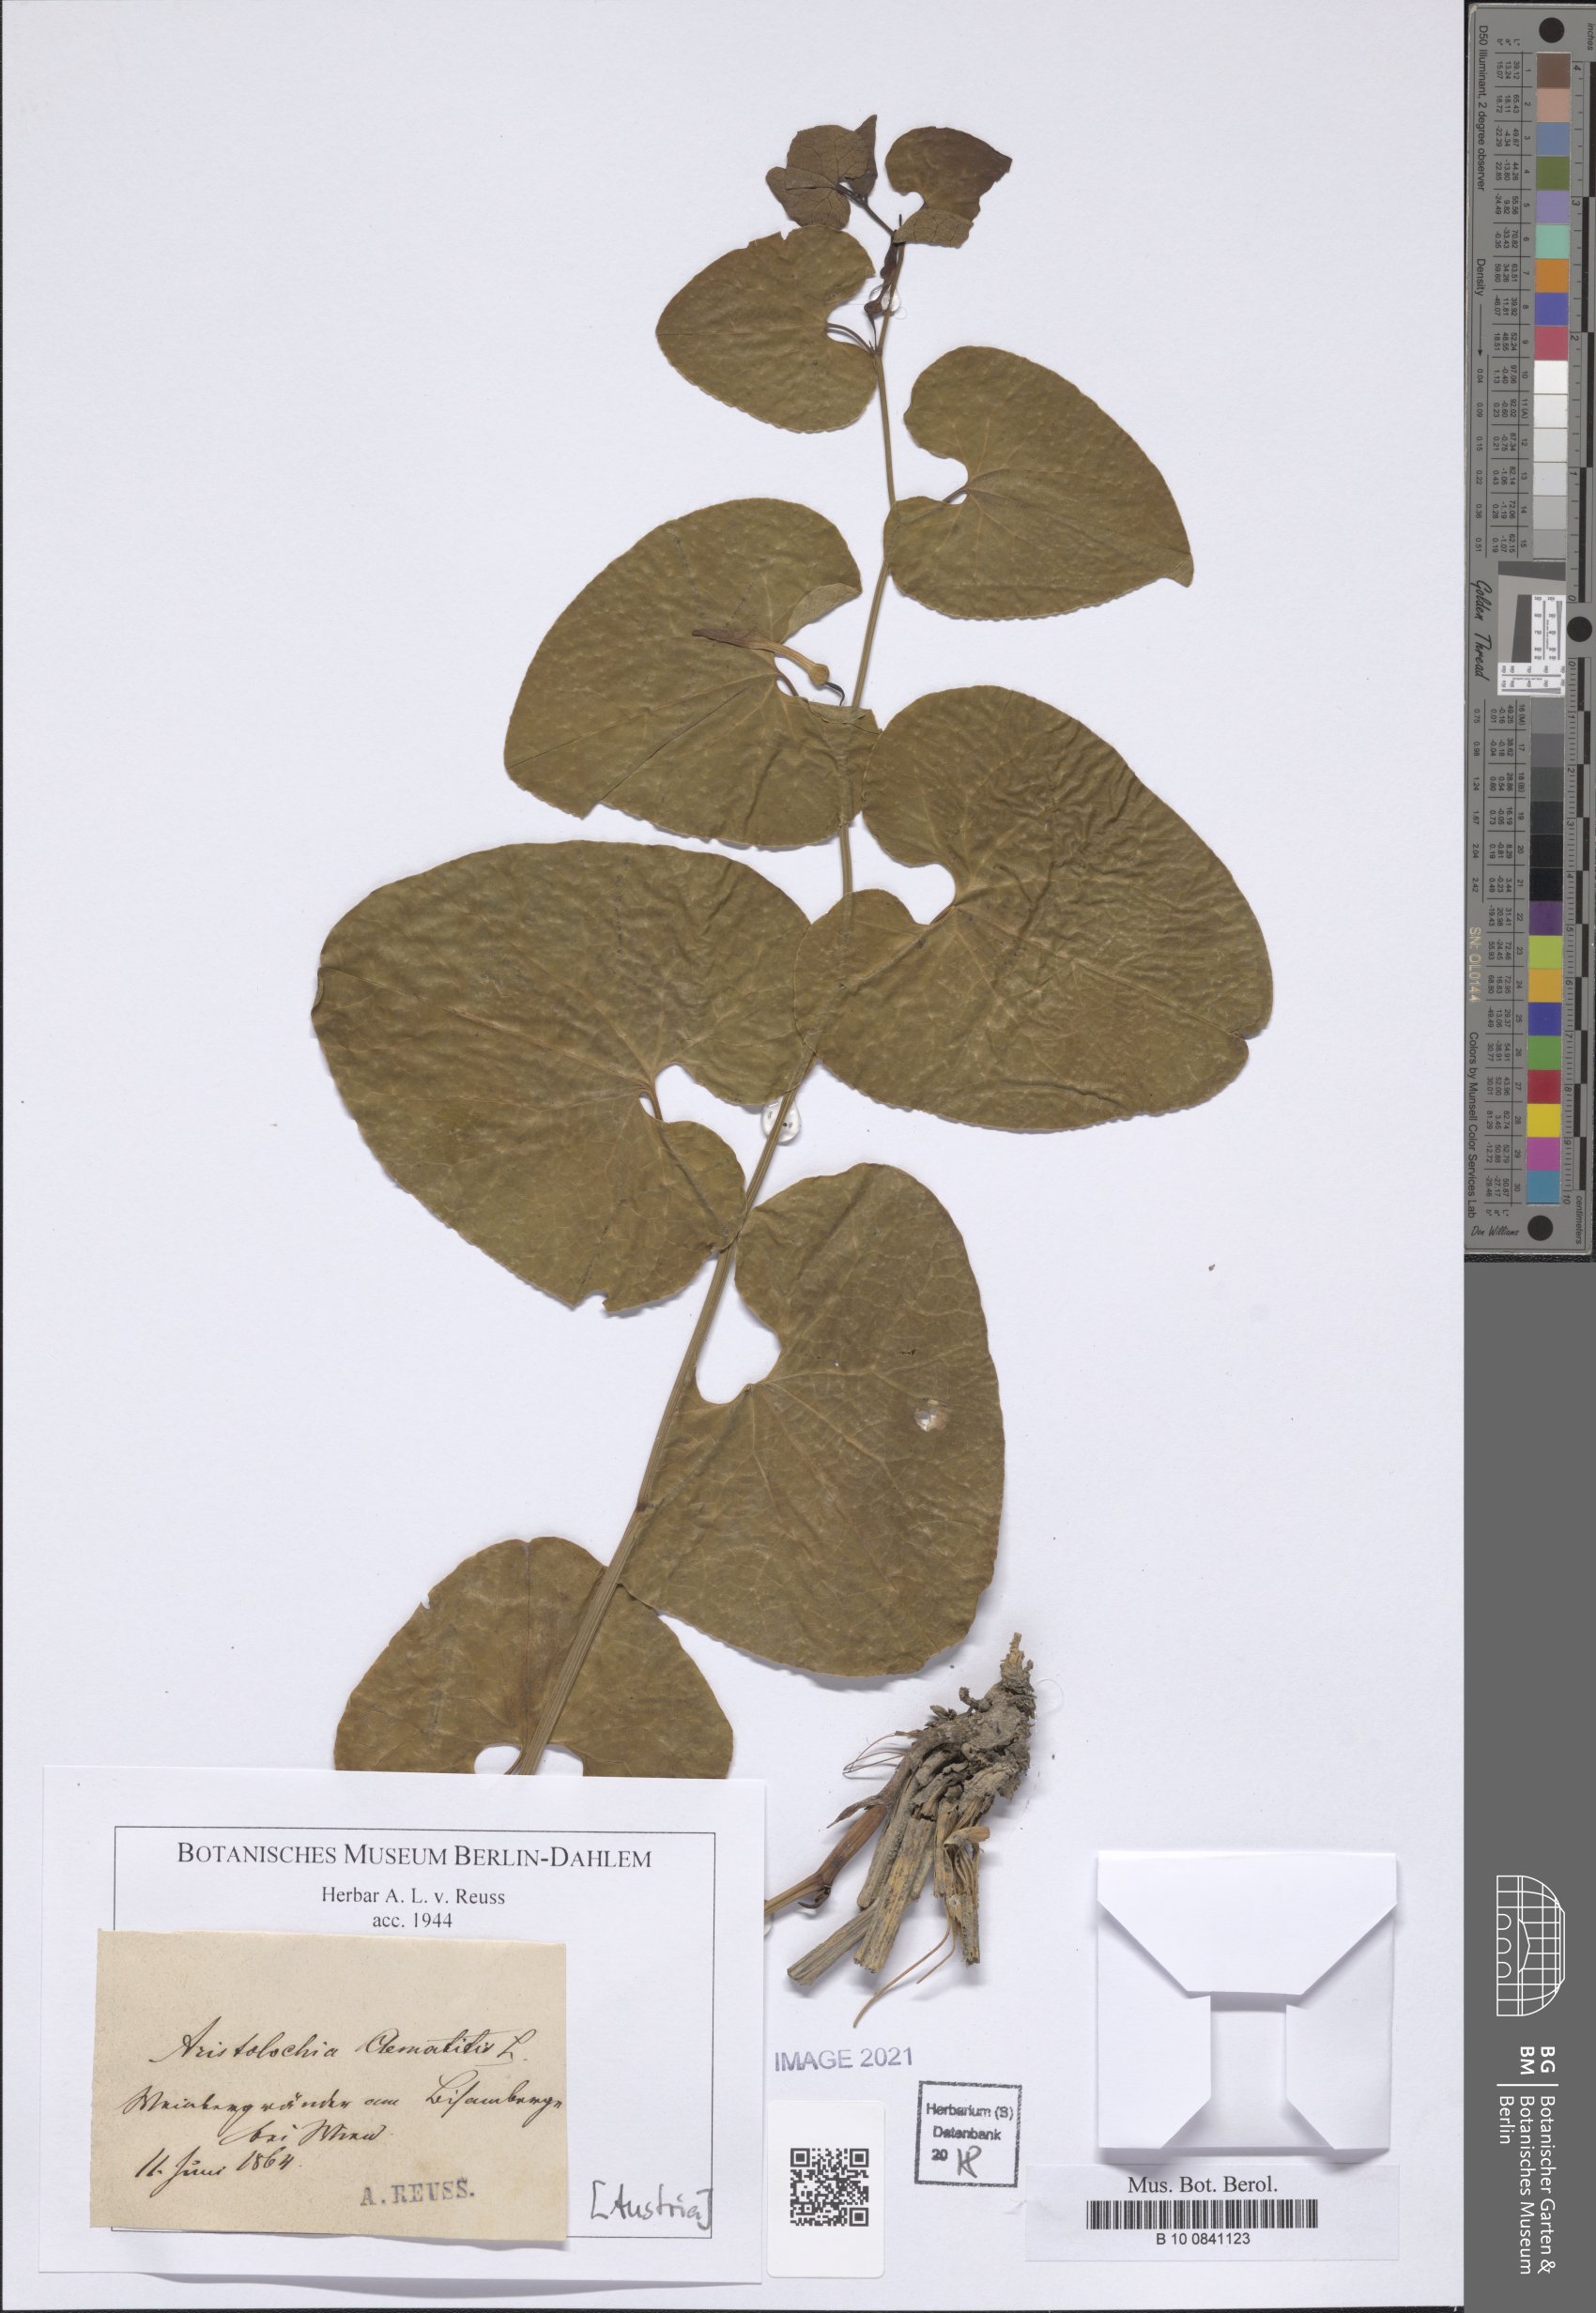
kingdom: Plantae
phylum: Tracheophyta
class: Magnoliopsida
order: Piperales
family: Aristolochiaceae
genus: Aristolochia
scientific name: Aristolochia clematitis
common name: Birthwort
